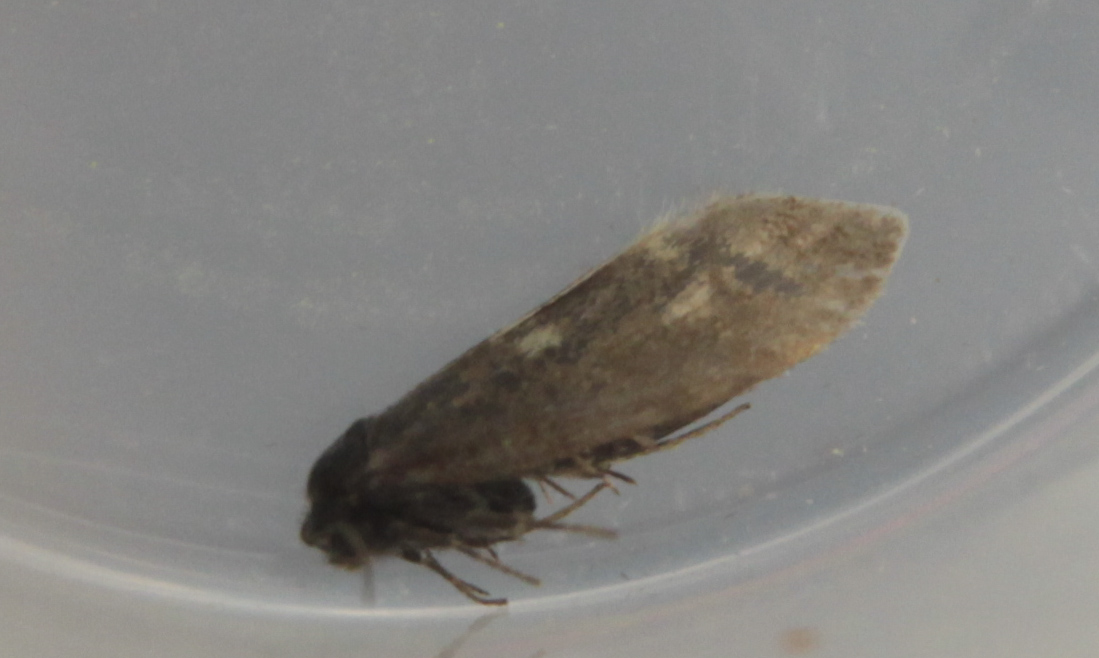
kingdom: Animalia
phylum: Arthropoda
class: Insecta
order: Lepidoptera
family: Incurvariidae
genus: Incurvaria
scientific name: Incurvaria pectinea
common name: Pale feathered leaf-cutter
